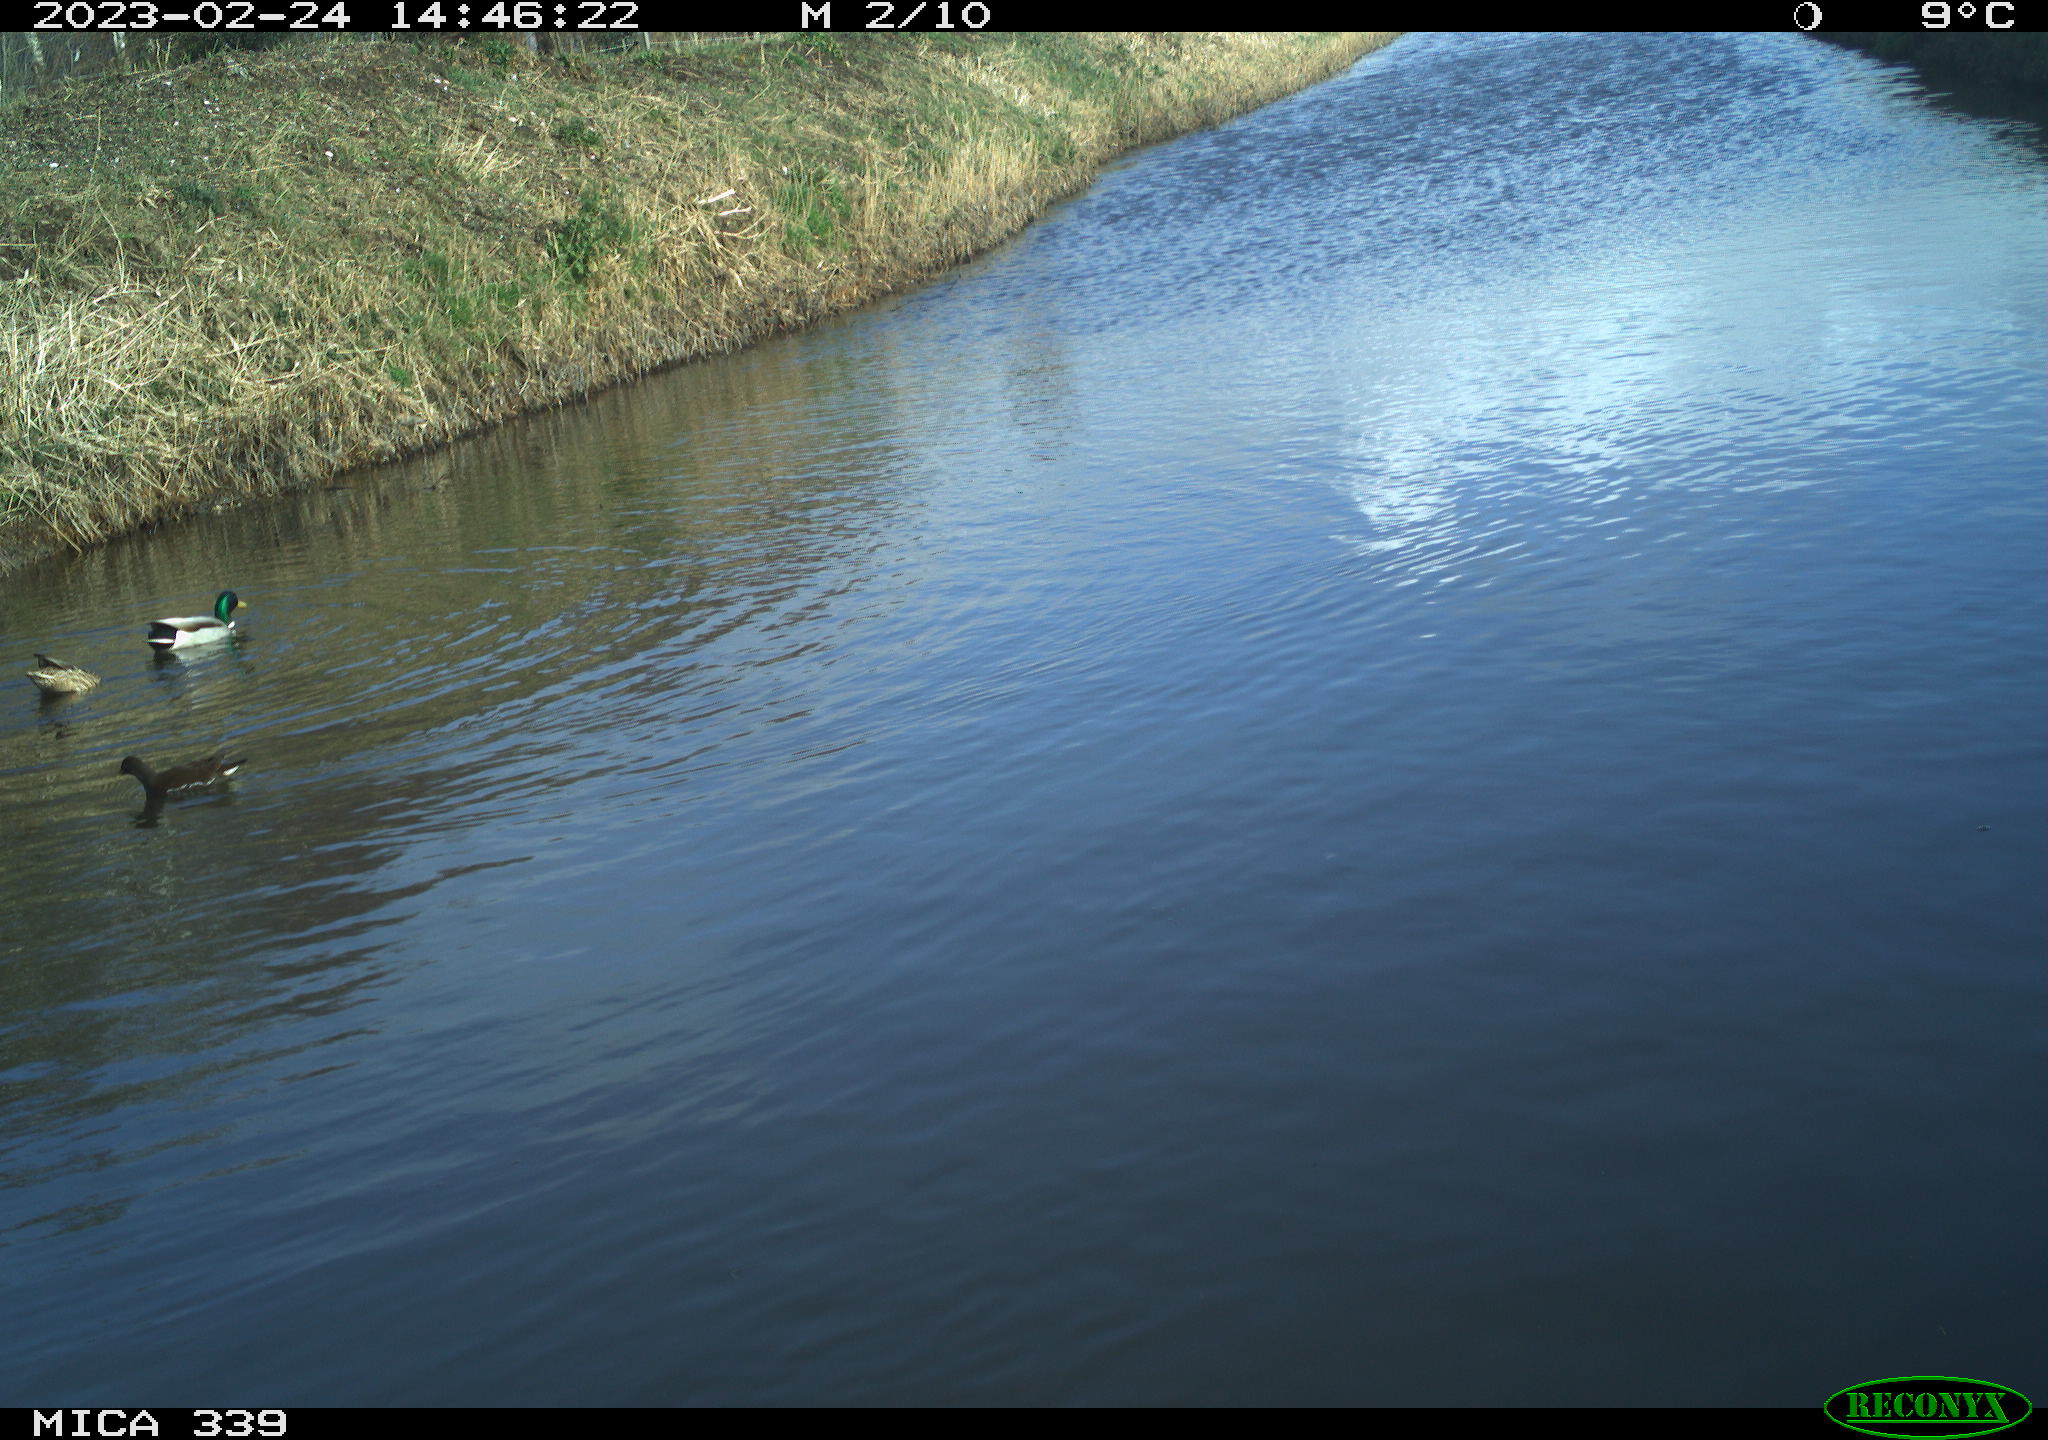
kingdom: Animalia
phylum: Chordata
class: Aves
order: Gruiformes
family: Rallidae
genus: Gallinula
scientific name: Gallinula chloropus
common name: Common moorhen
